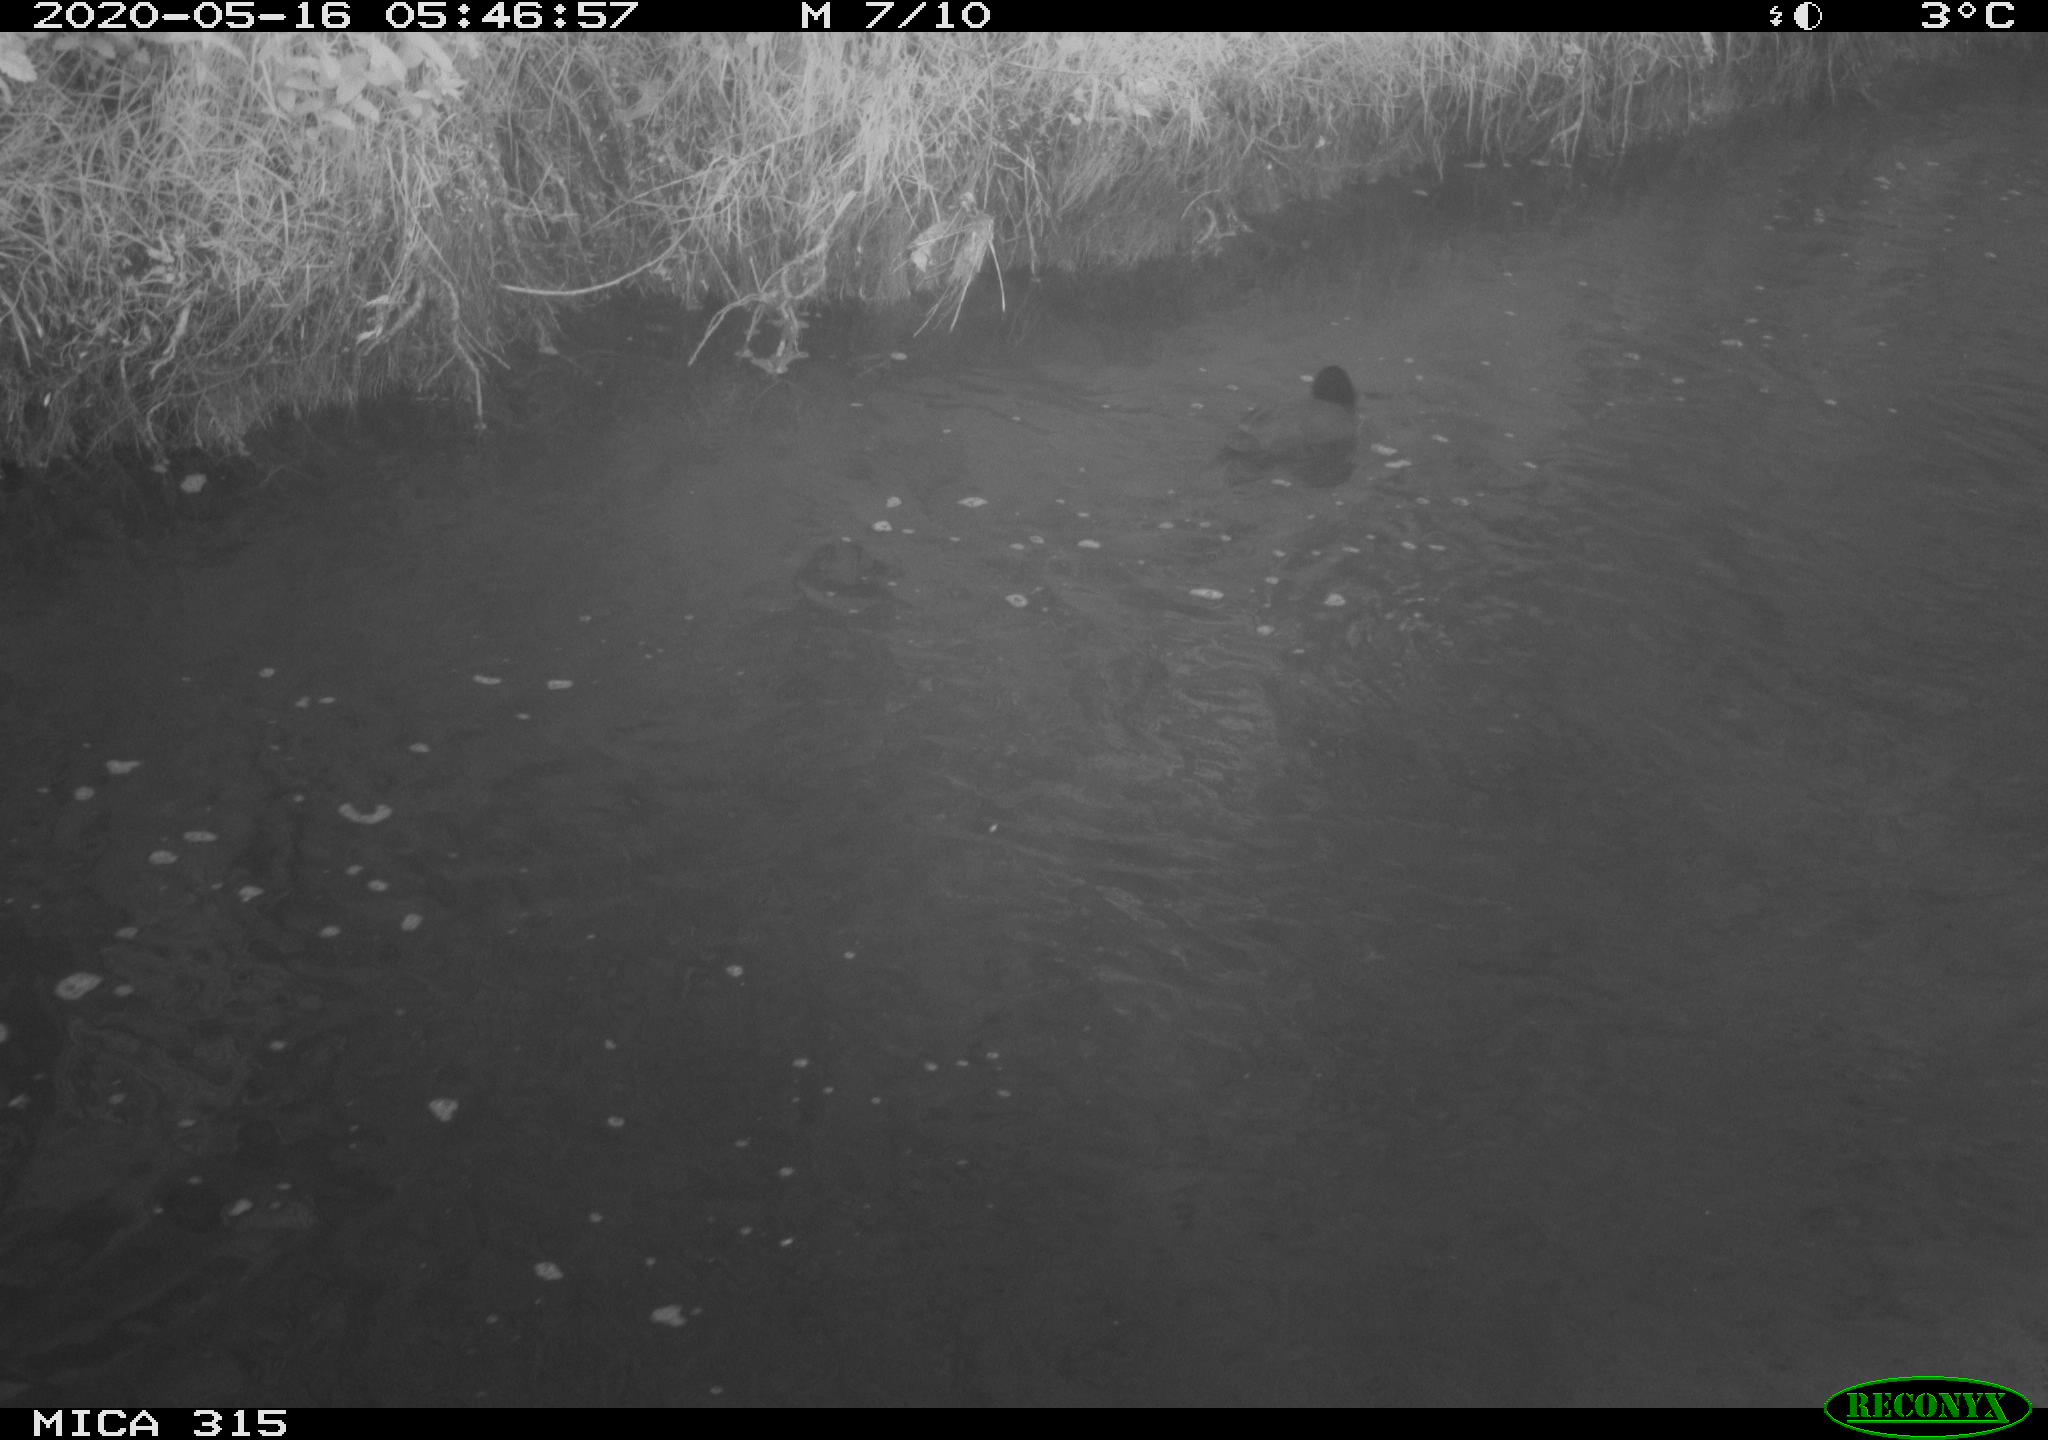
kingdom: Animalia
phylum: Chordata
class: Aves
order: Anseriformes
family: Anatidae
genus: Anas
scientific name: Anas platyrhynchos
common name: Mallard
